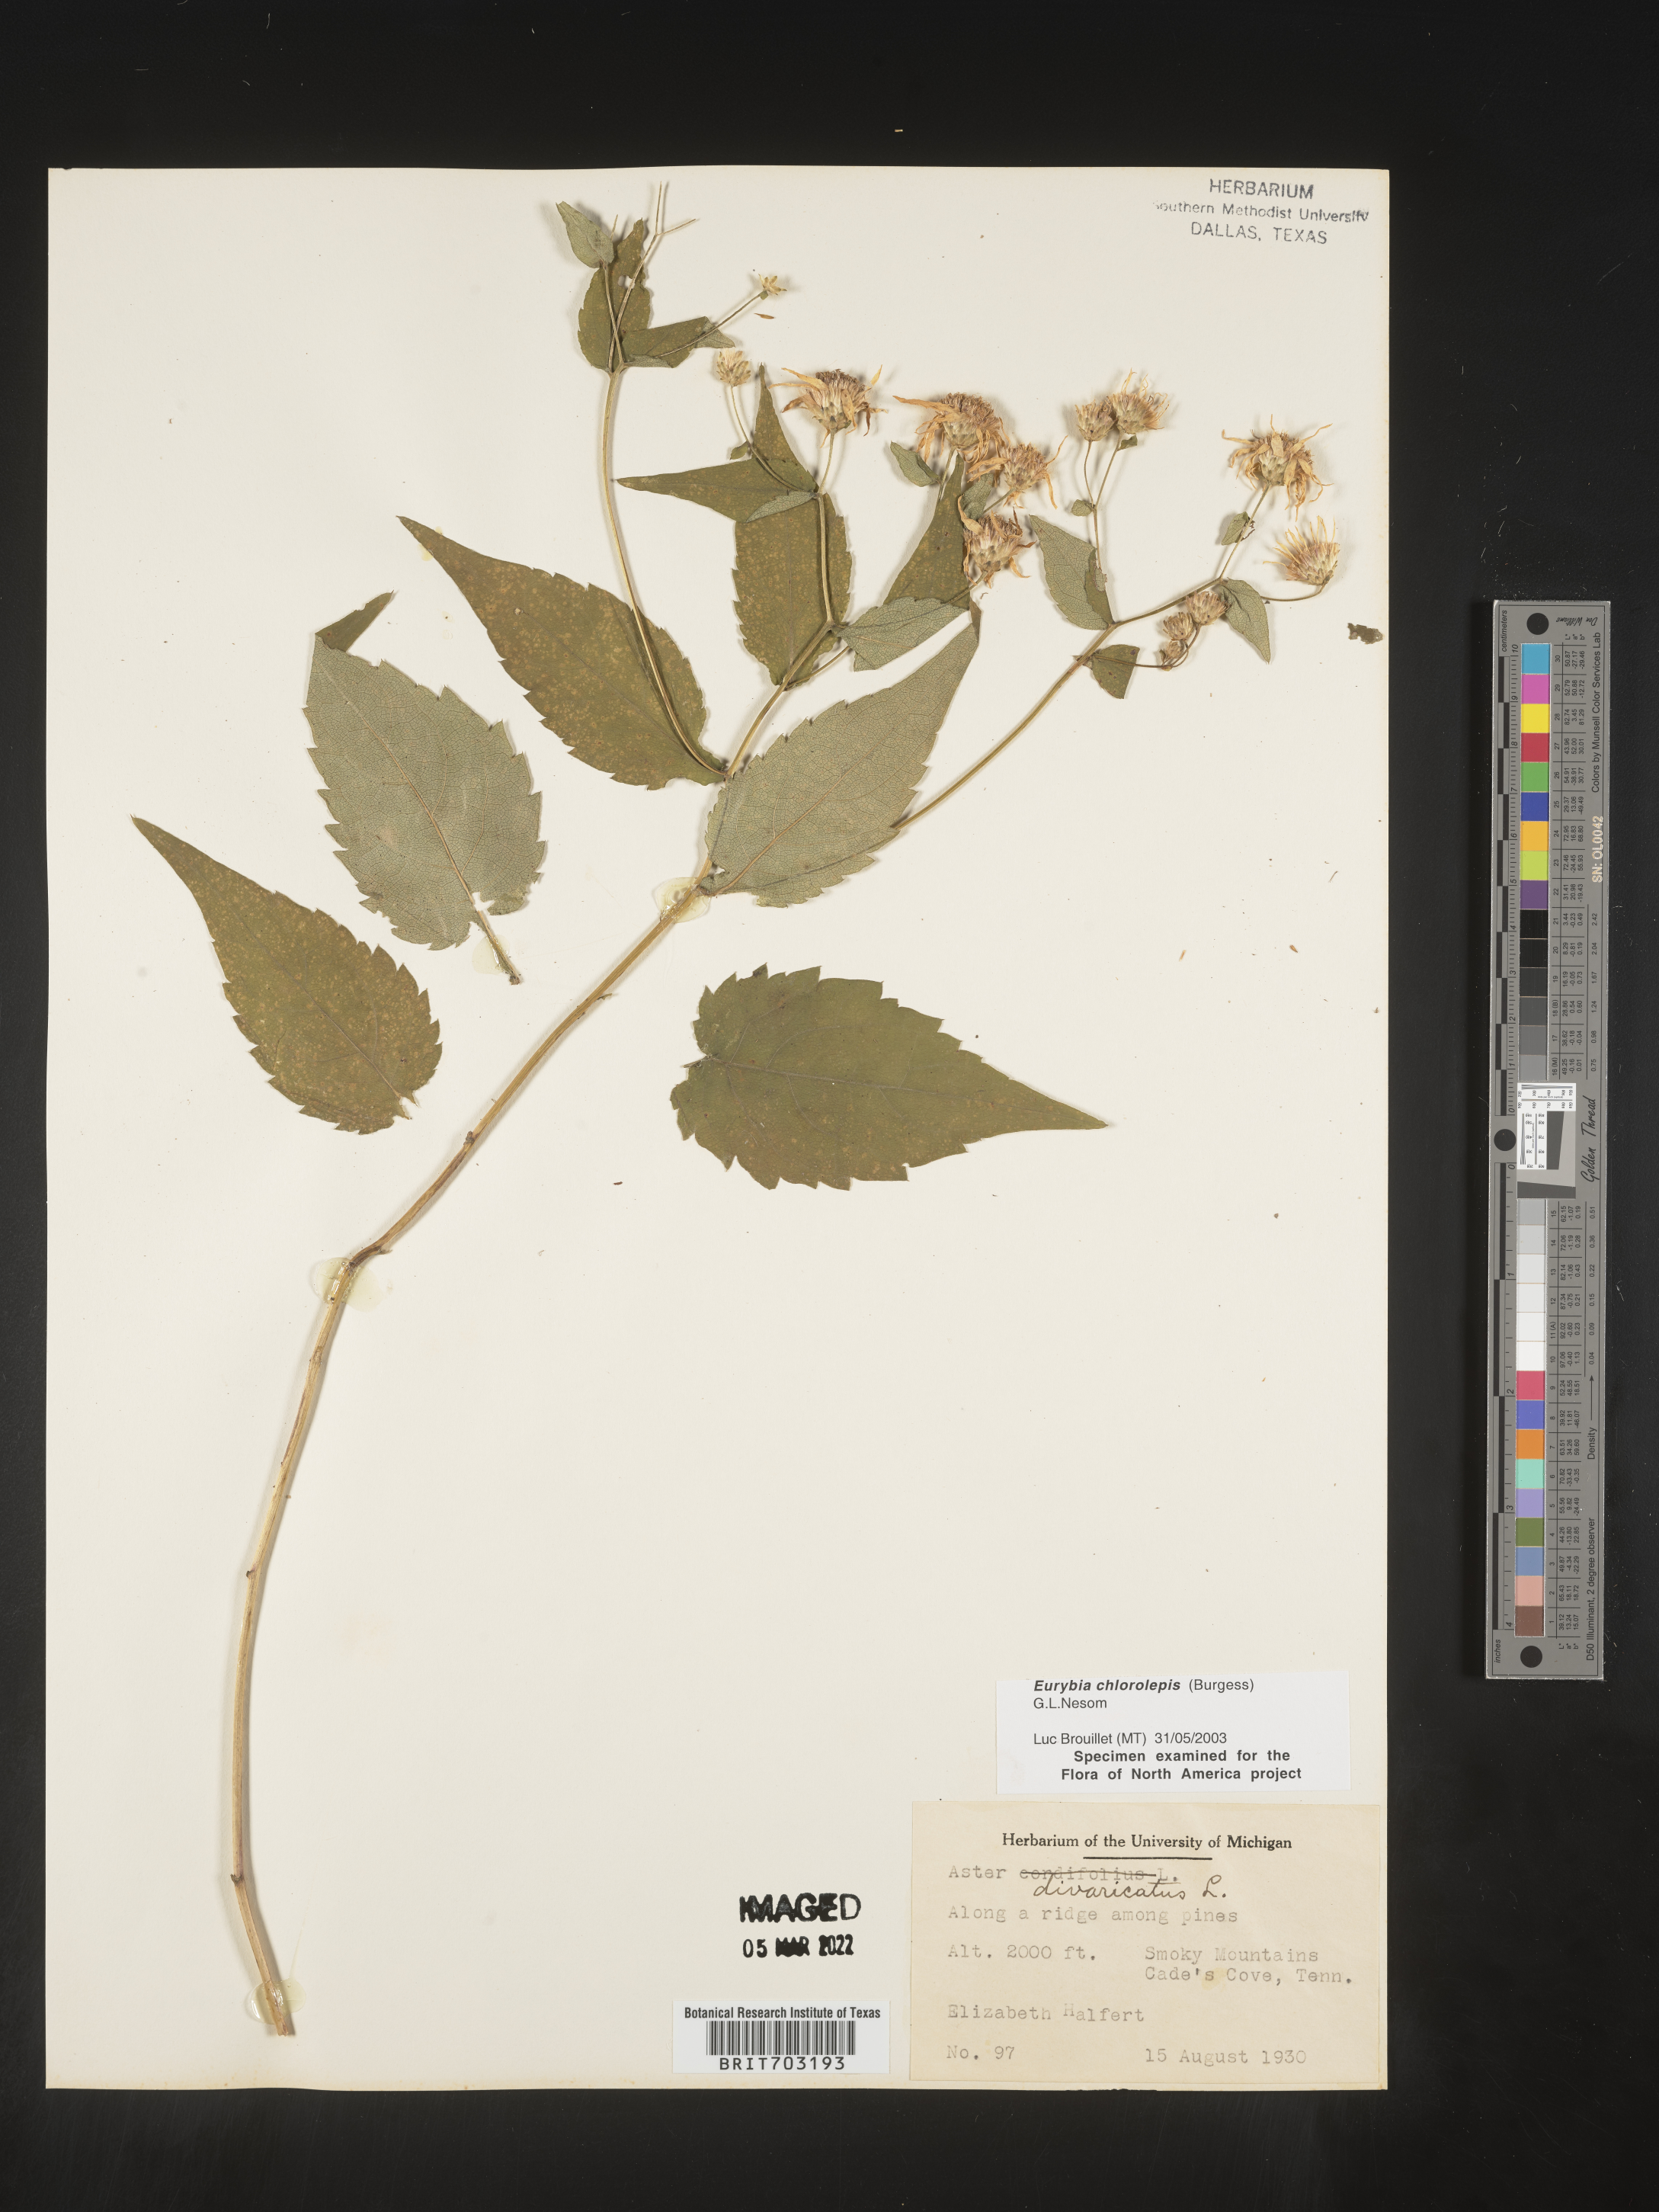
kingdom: Plantae
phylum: Tracheophyta
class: Magnoliopsida
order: Asterales
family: Asteraceae
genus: Eurybia
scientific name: Eurybia chlorolepis
